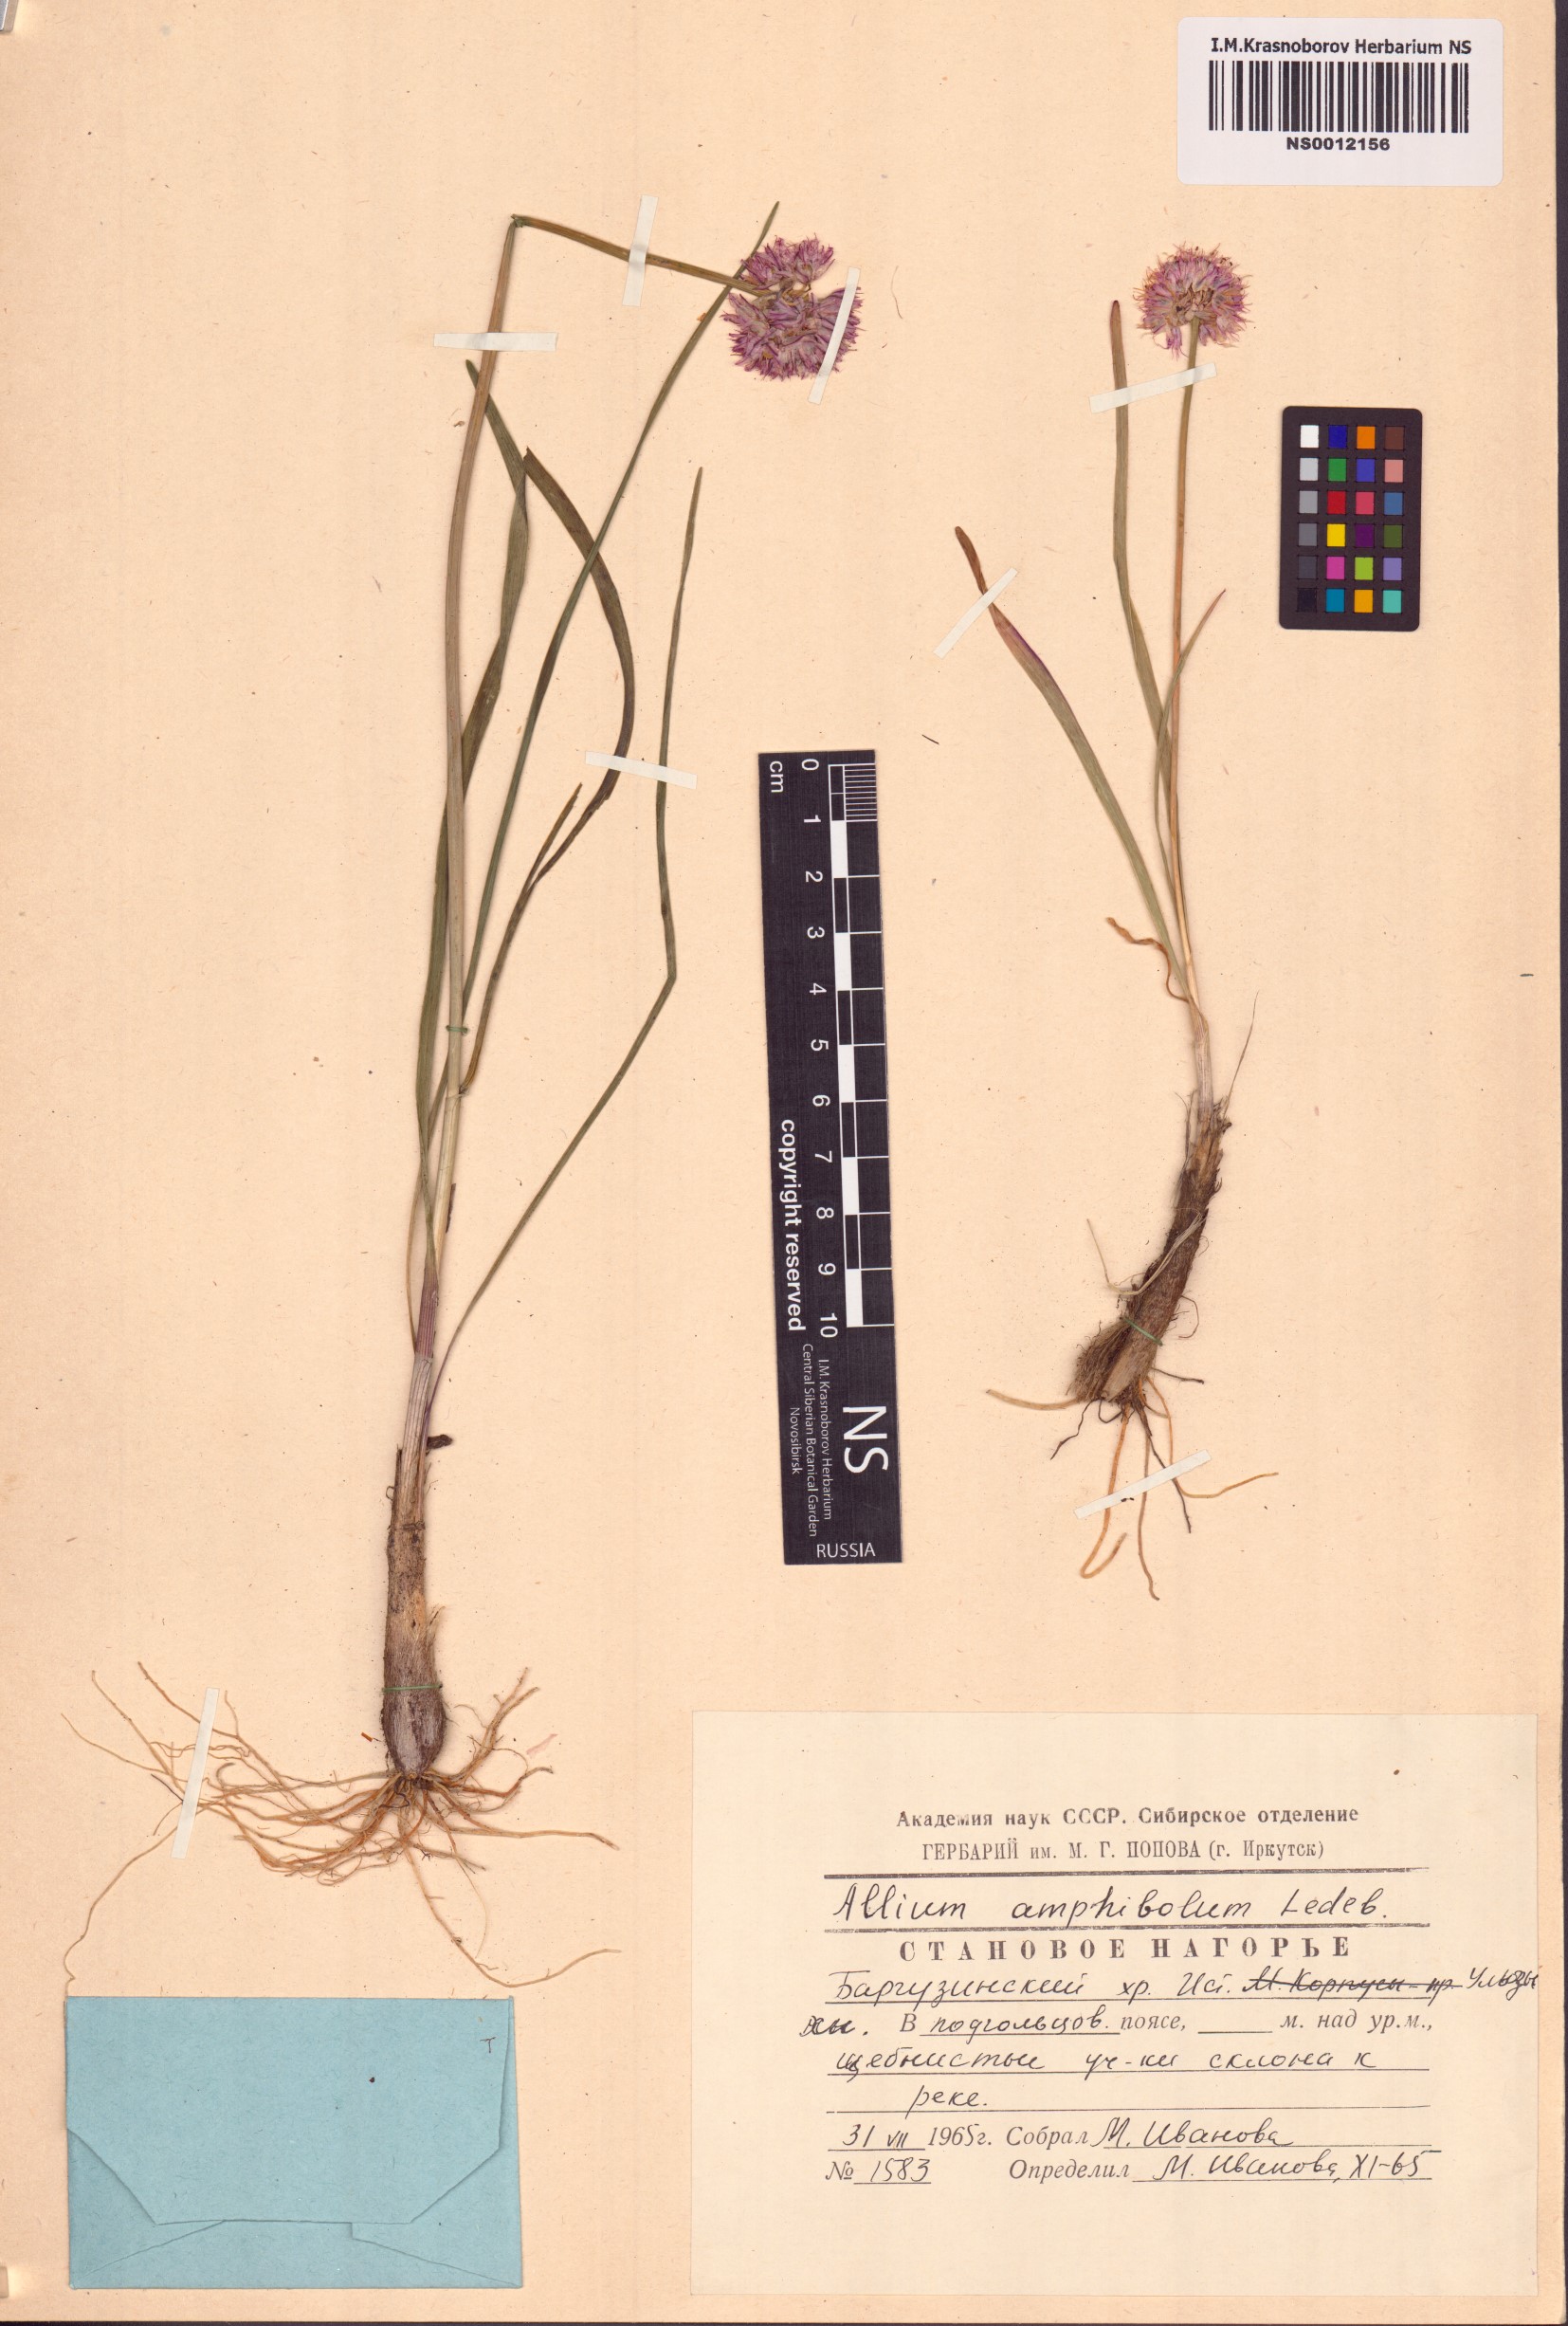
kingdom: Plantae
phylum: Tracheophyta
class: Liliopsida
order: Asparagales
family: Amaryllidaceae
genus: Allium
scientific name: Allium amphibolum
